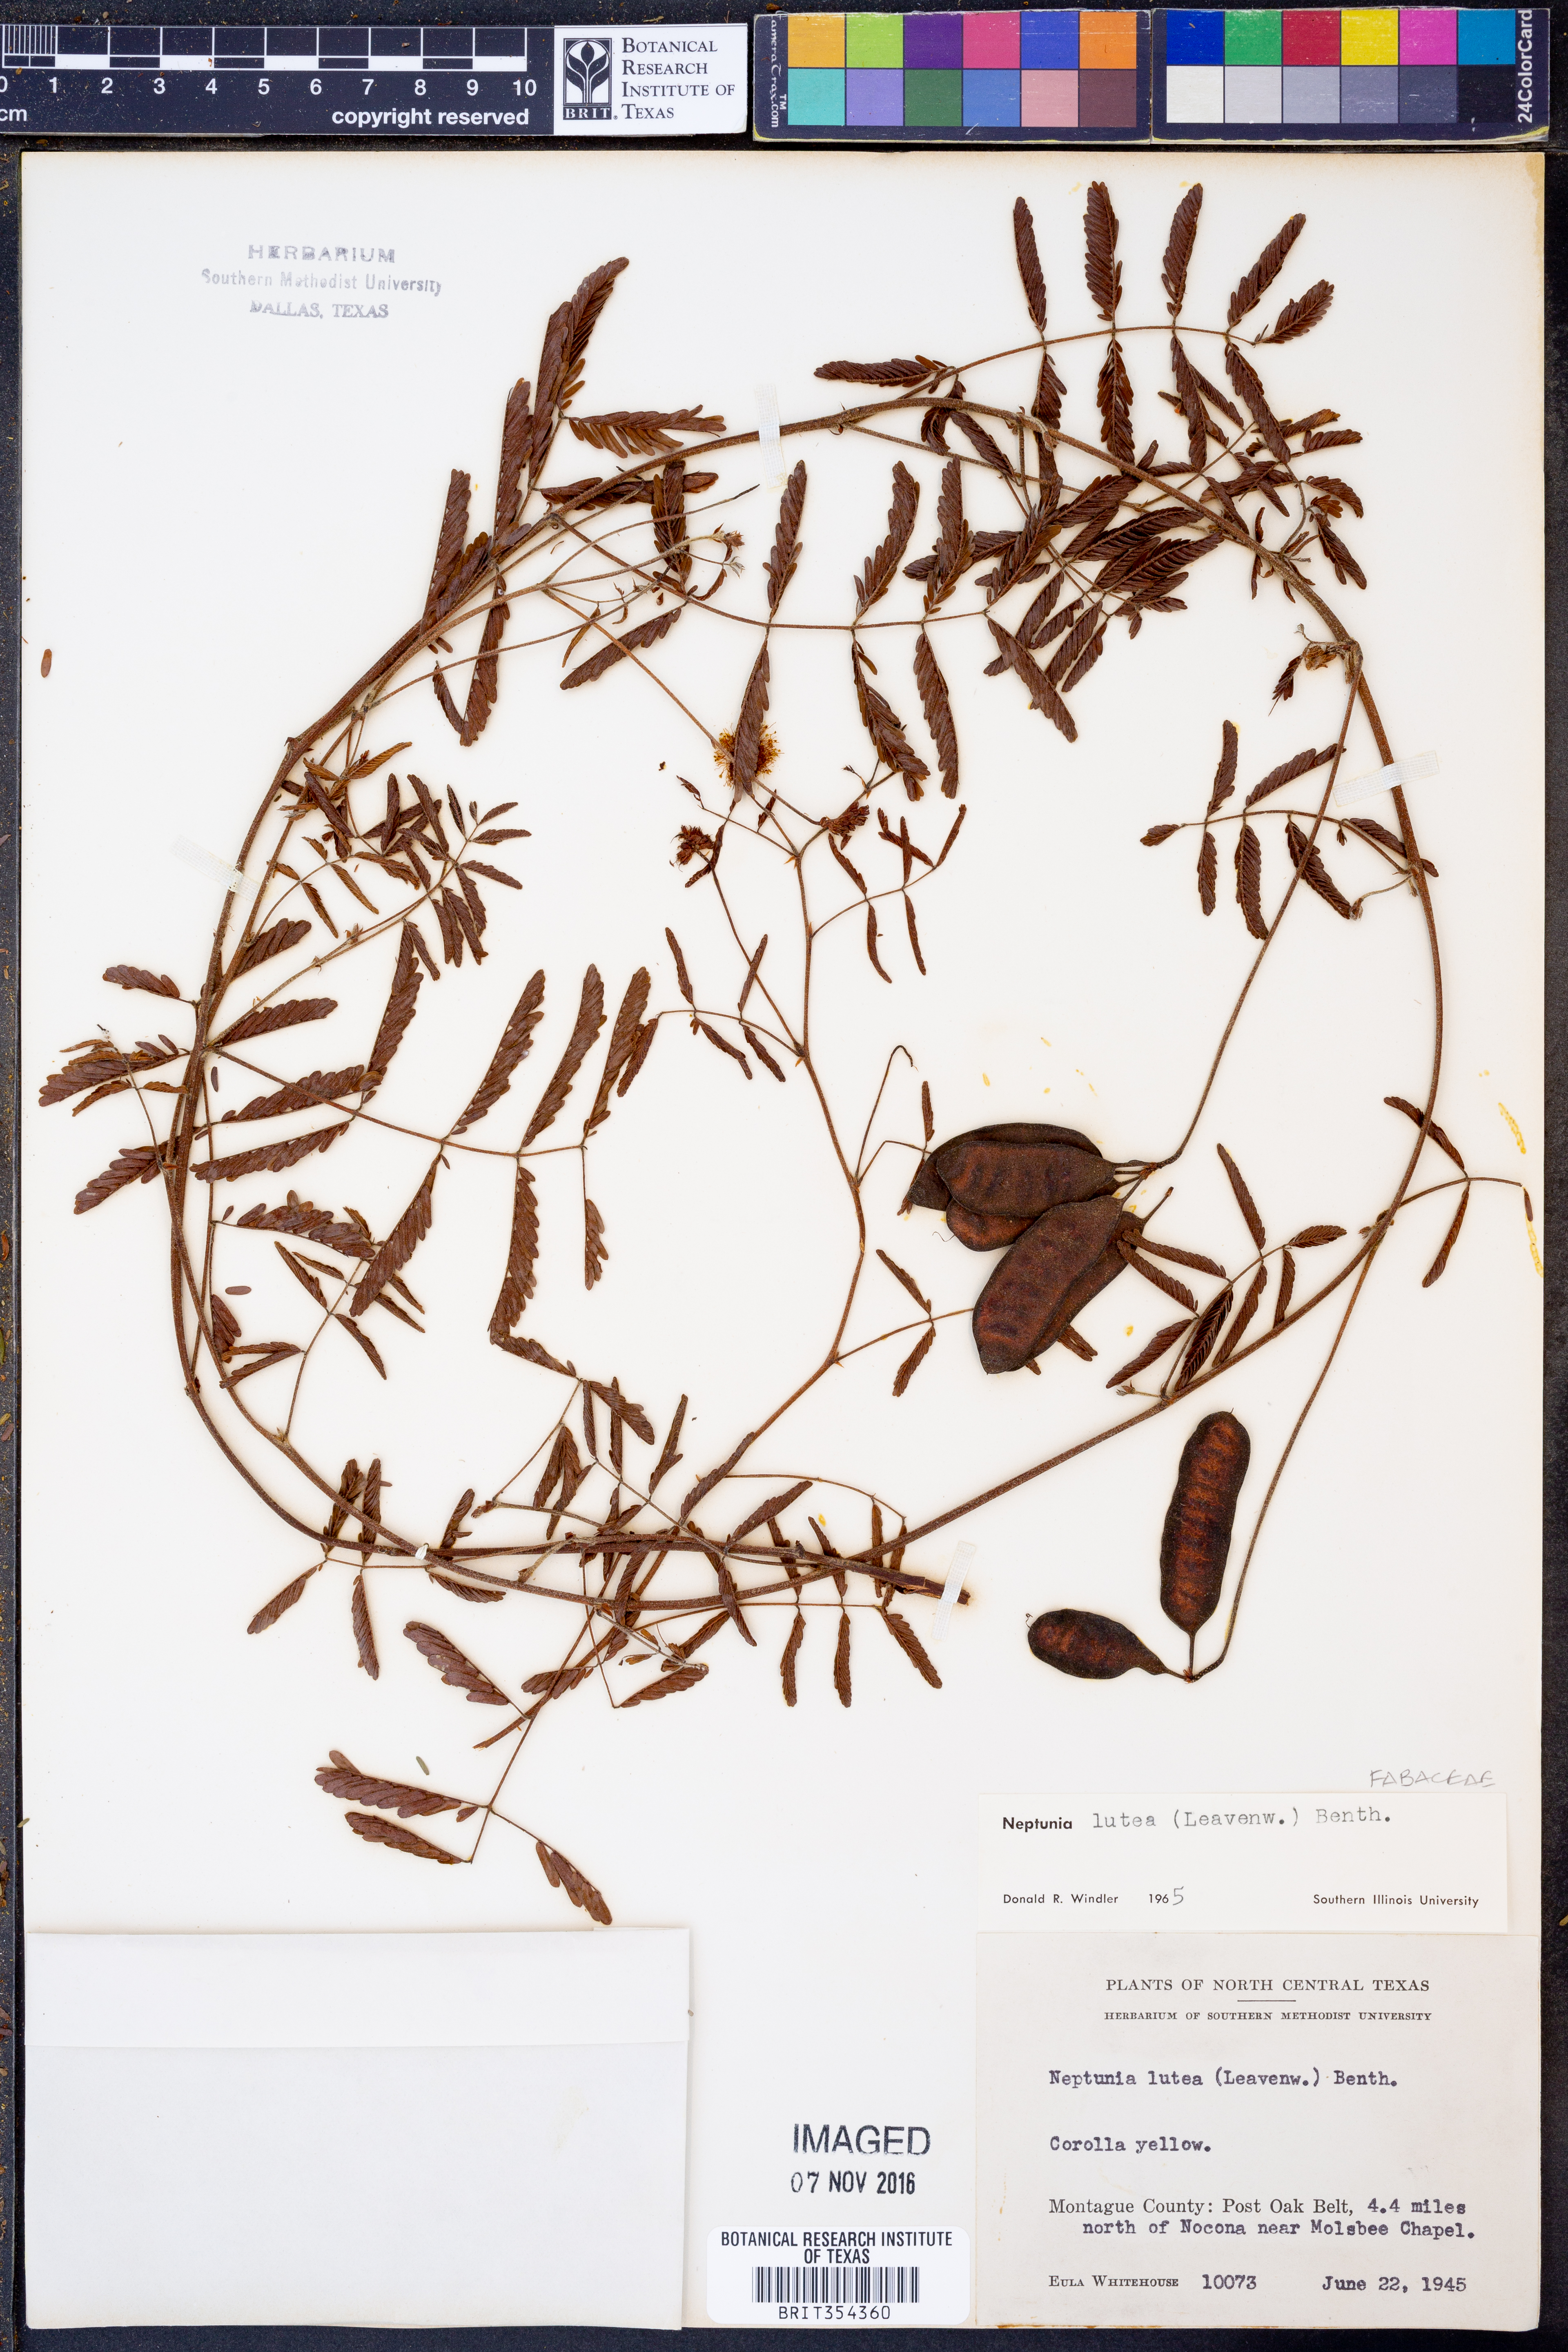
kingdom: Plantae
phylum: Tracheophyta
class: Magnoliopsida
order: Fabales
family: Fabaceae
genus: Neptunia
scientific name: Neptunia lutea
